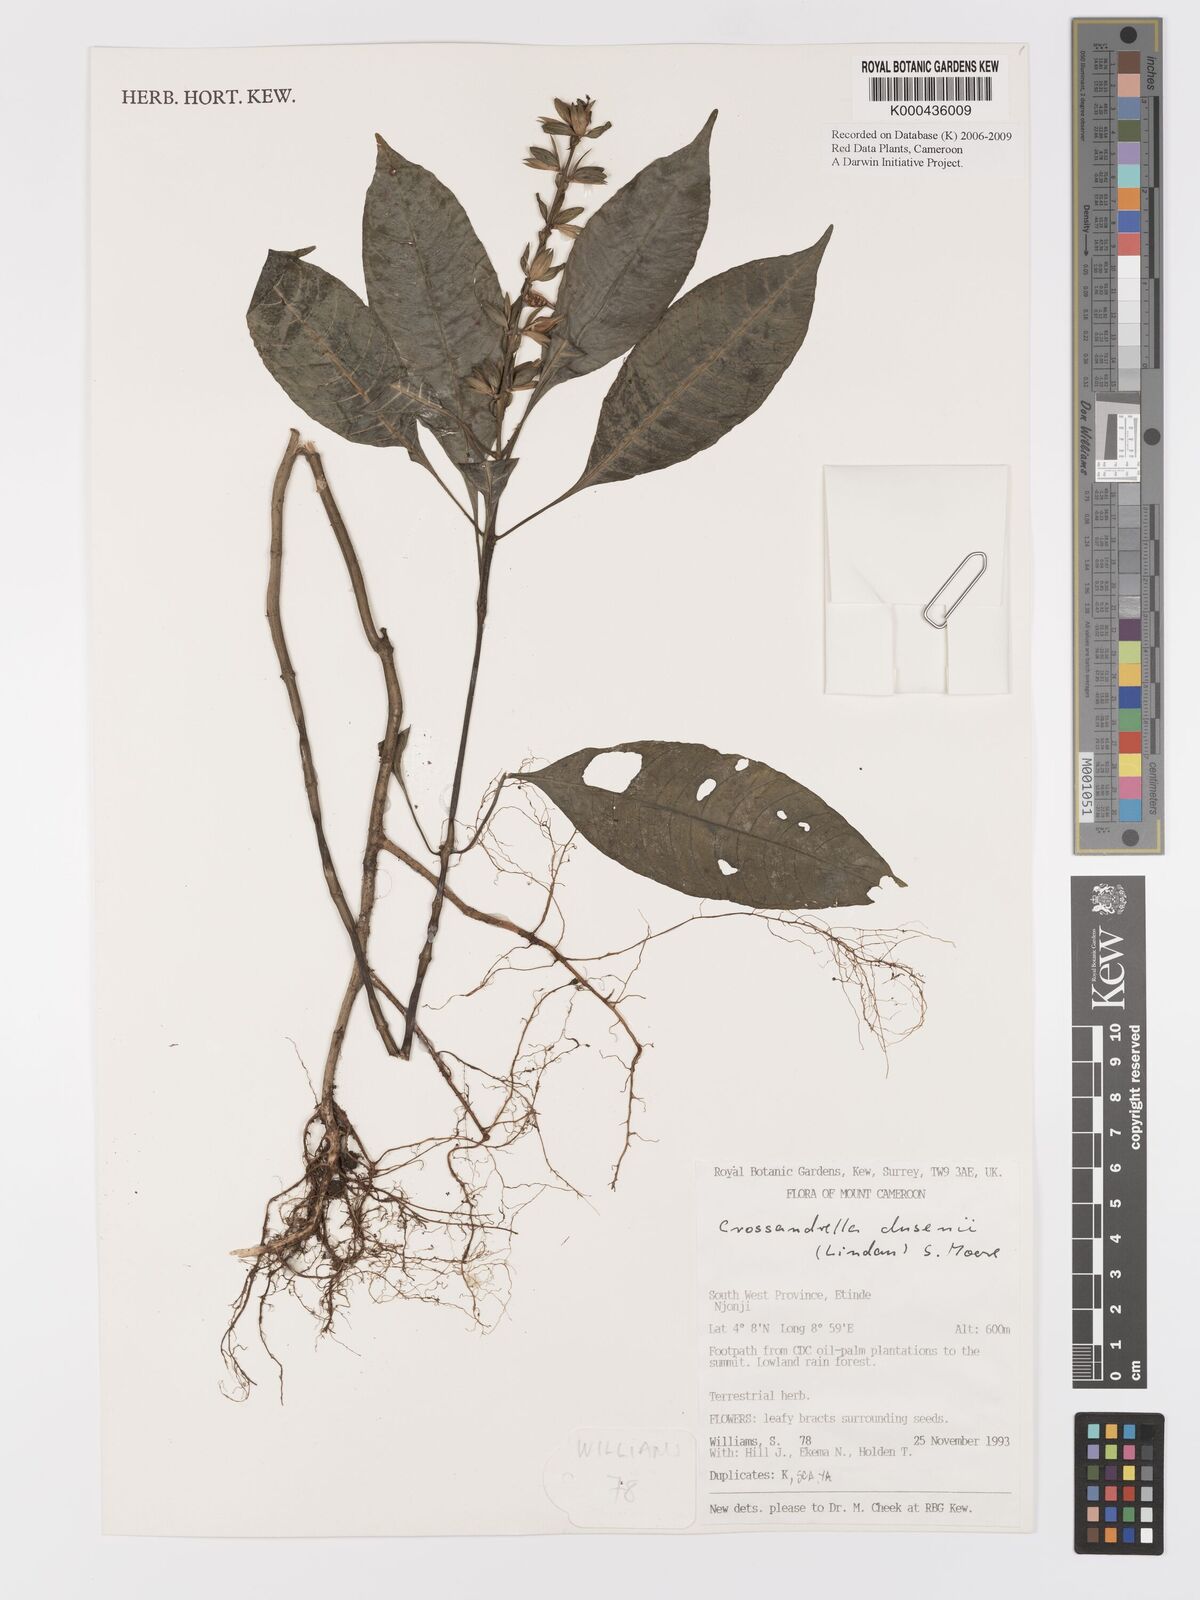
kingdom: Plantae
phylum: Tracheophyta
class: Magnoliopsida
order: Lamiales
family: Acanthaceae
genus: Crossandrella
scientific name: Crossandrella dusenii
